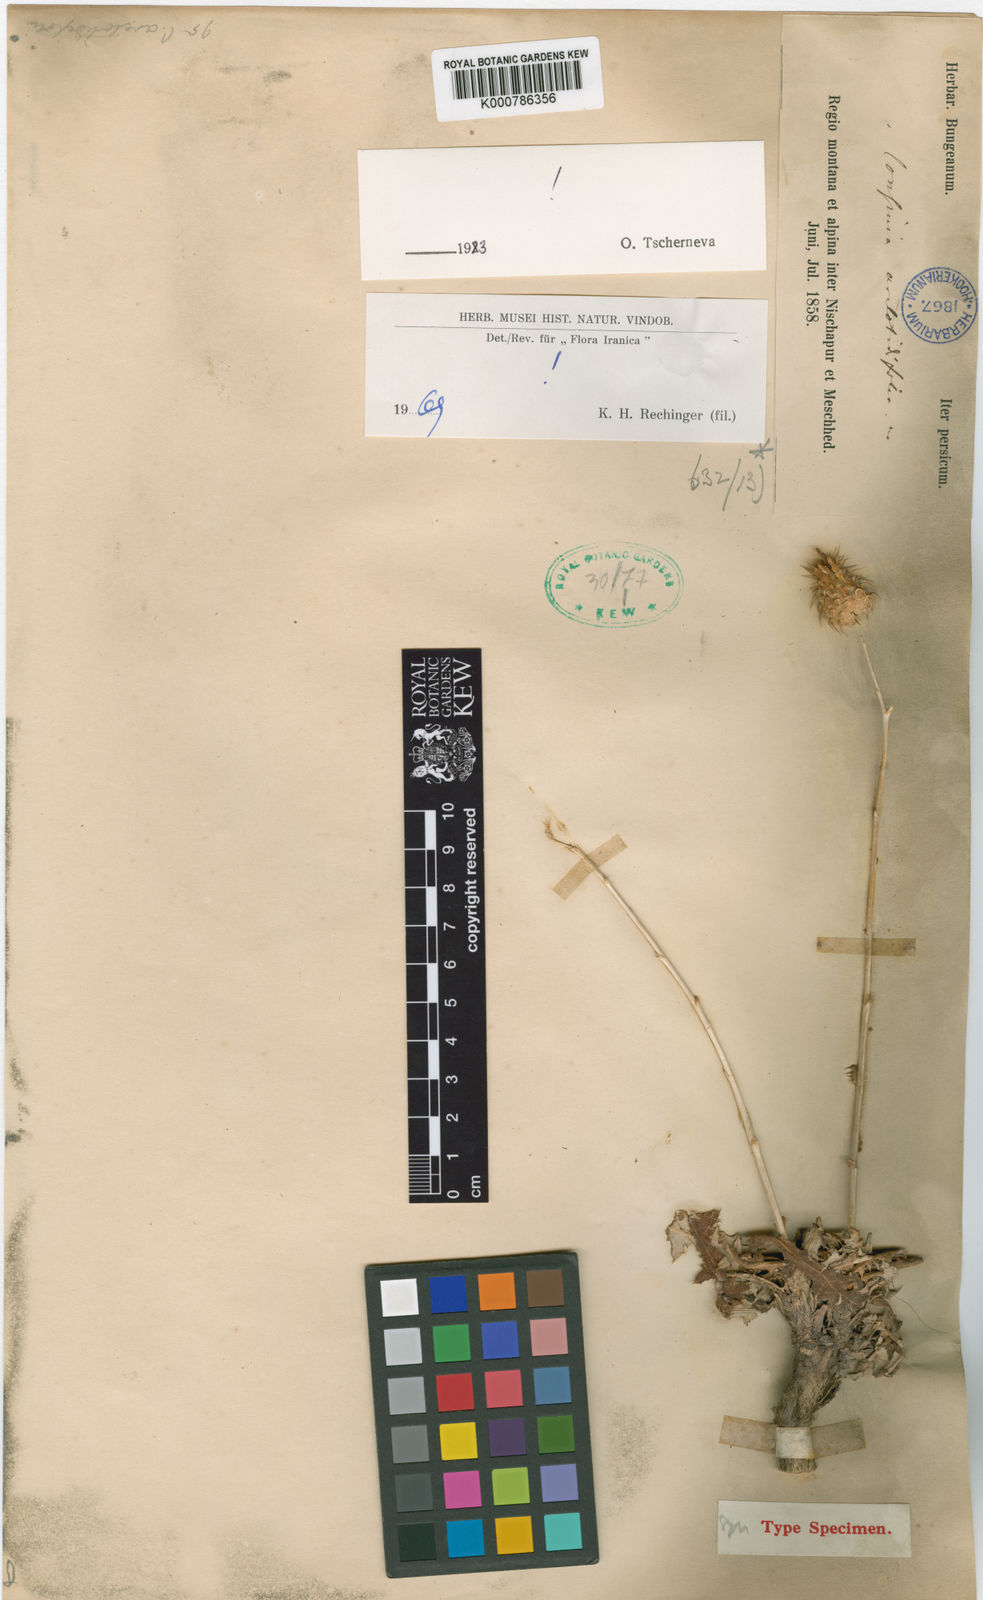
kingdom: Plantae
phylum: Tracheophyta
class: Magnoliopsida
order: Asterales
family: Asteraceae
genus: Cousinia
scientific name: Cousinia arctotidifolia
